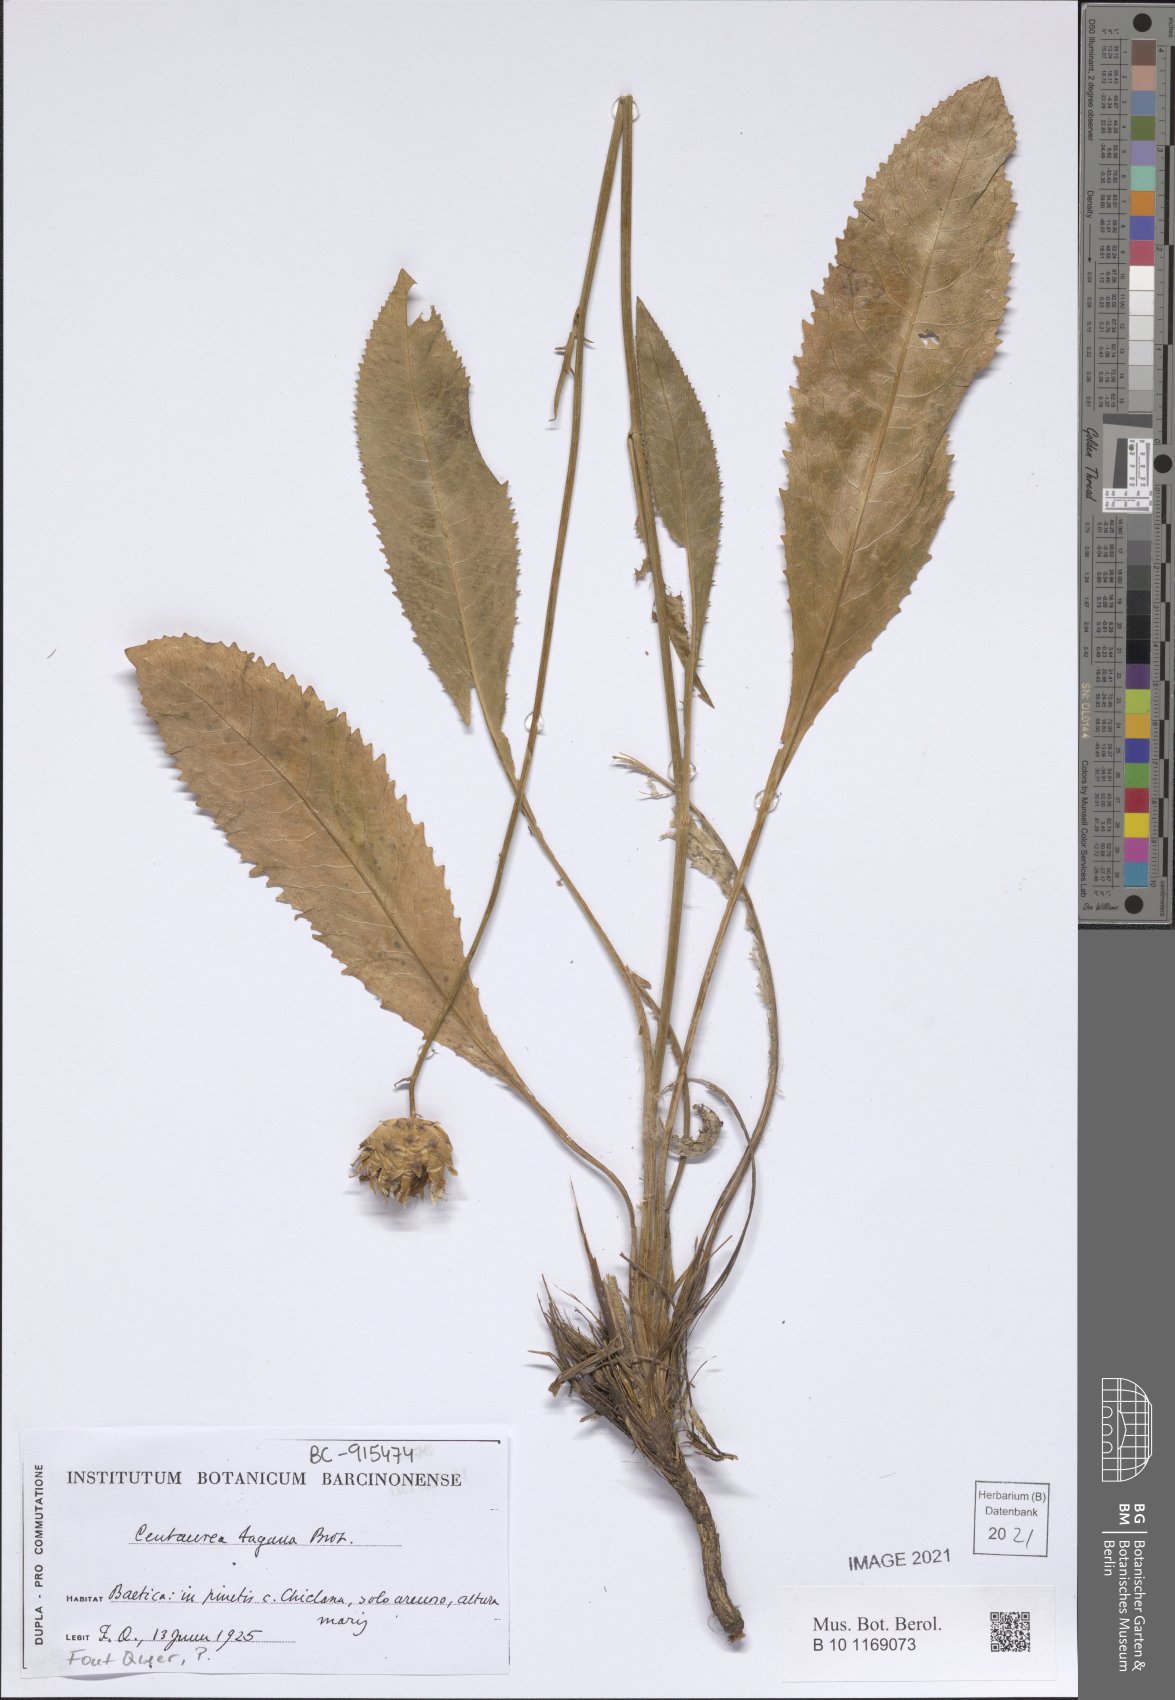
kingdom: Plantae
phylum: Tracheophyta
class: Magnoliopsida
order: Asterales
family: Asteraceae
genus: Rhaponticoides
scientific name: Rhaponticoides africana
